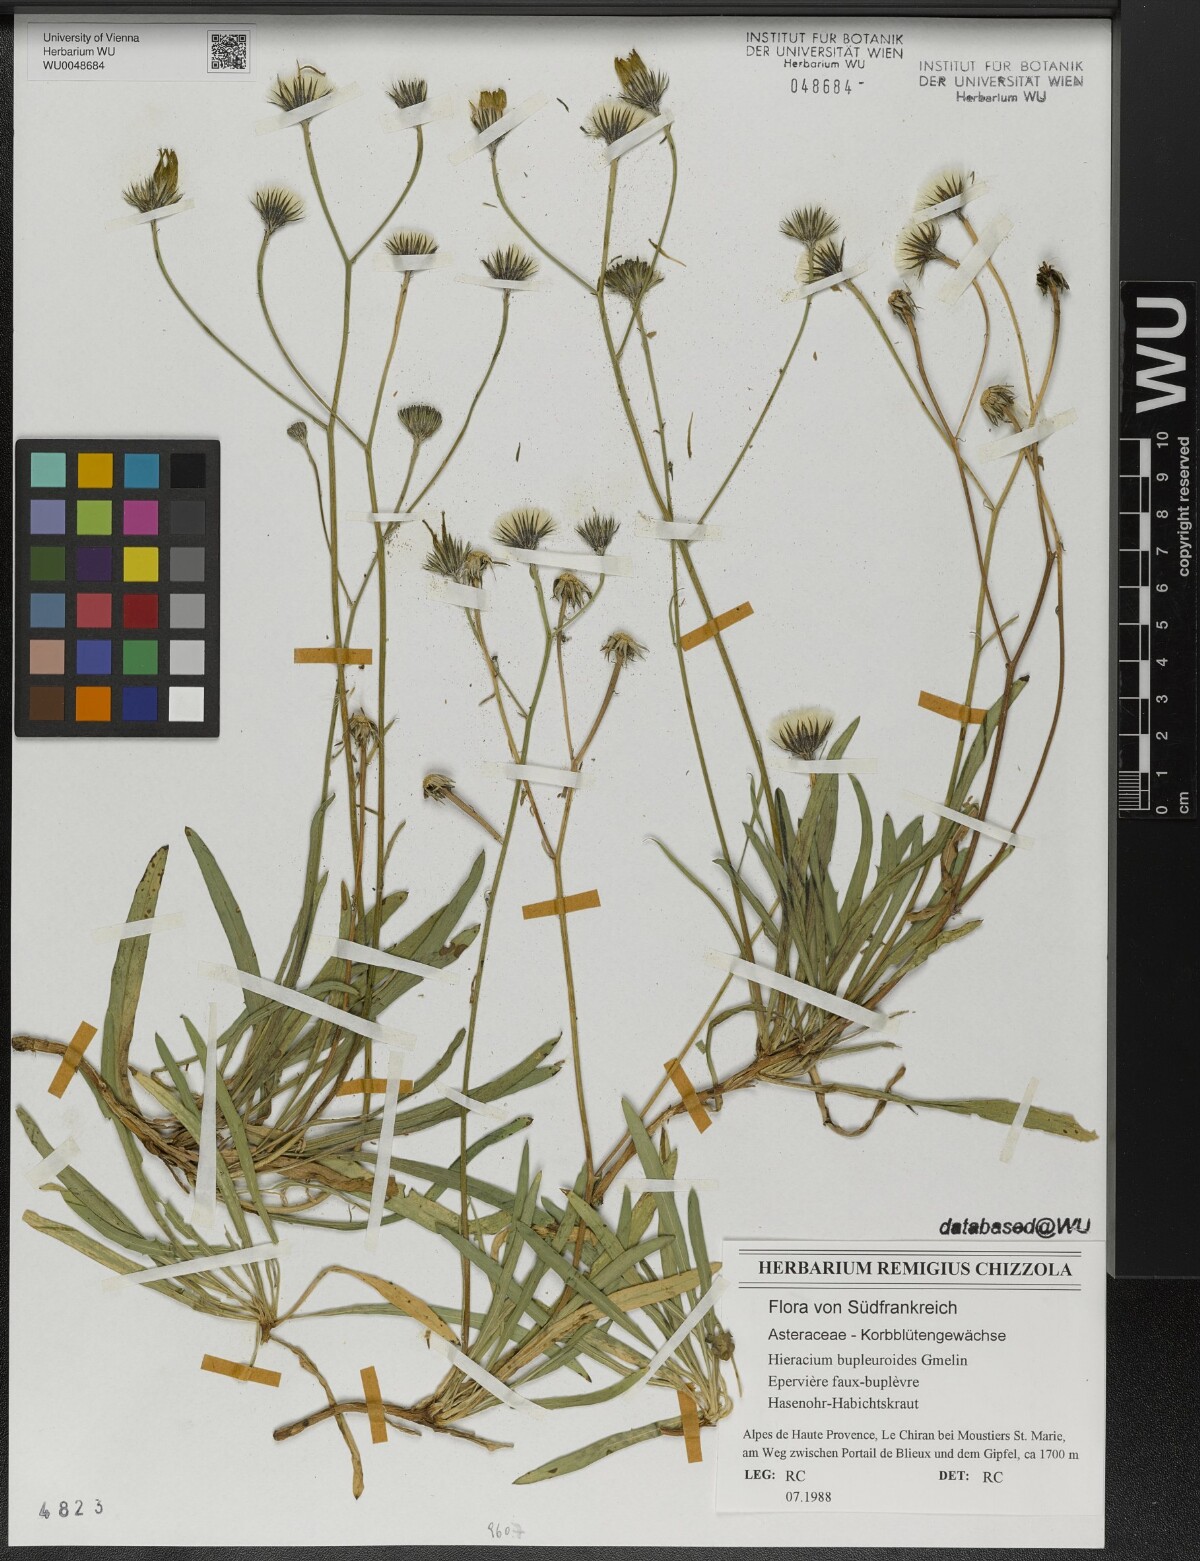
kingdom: Plantae
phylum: Tracheophyta
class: Magnoliopsida
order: Asterales
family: Asteraceae
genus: Hieracium
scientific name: Hieracium bupleuroides
